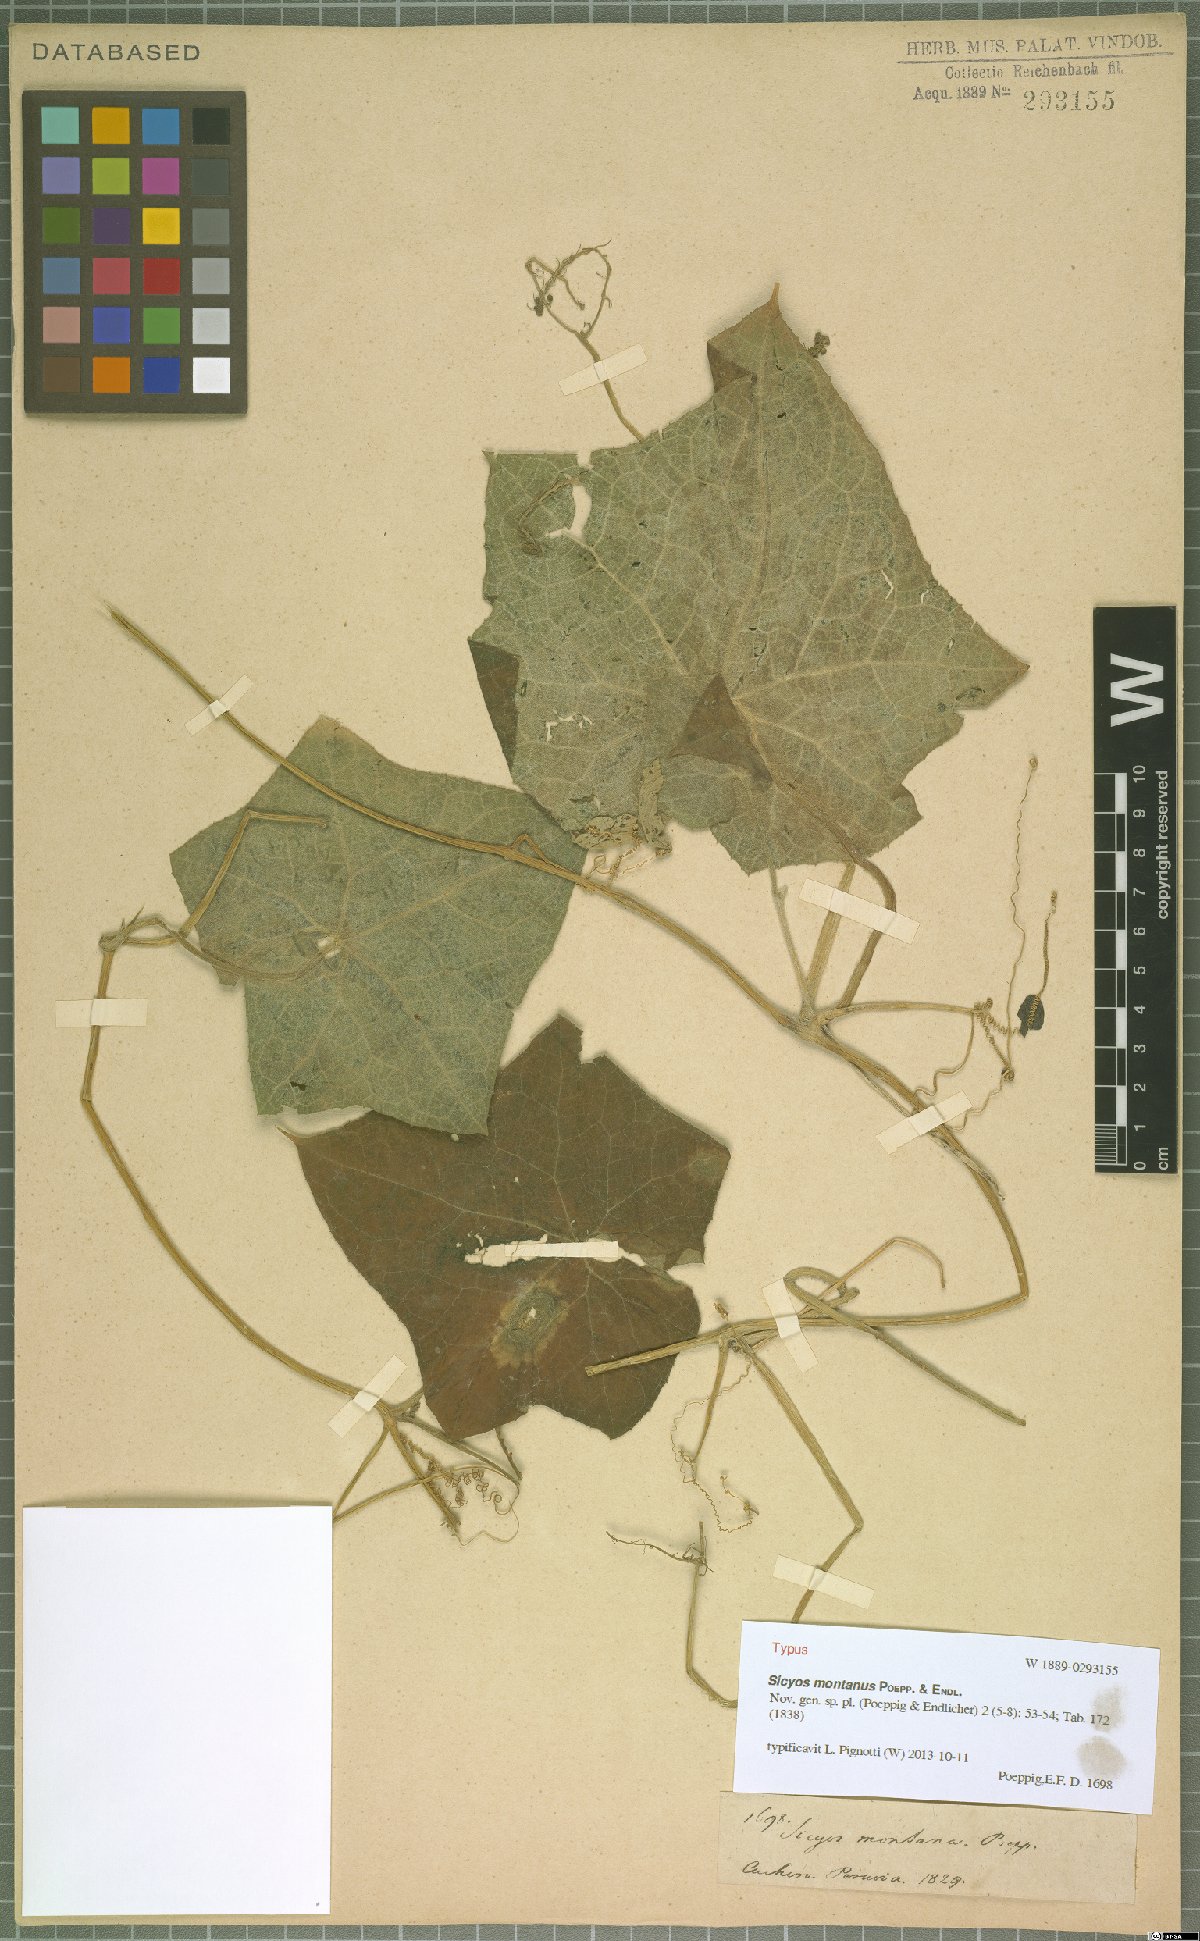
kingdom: Plantae
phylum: Tracheophyta
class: Magnoliopsida
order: Cucurbitales
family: Cucurbitaceae
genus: Sicyos
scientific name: Sicyos montanus
